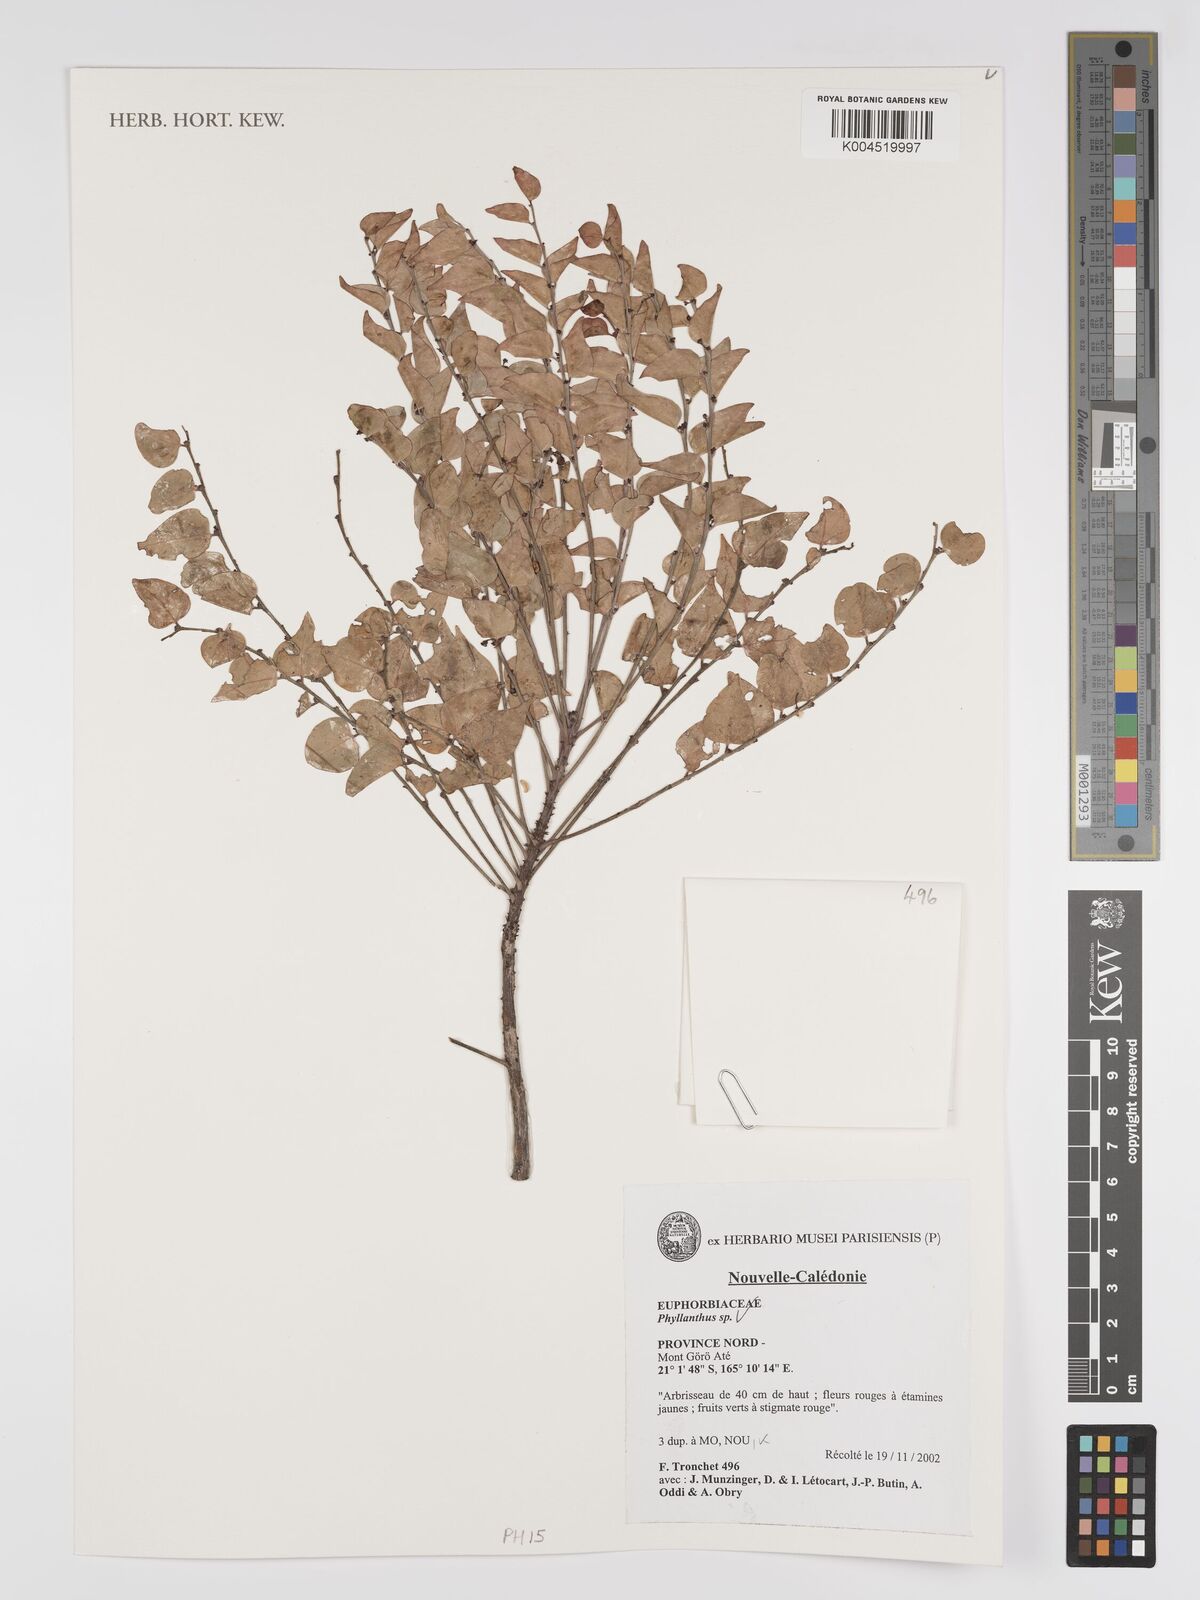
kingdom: Plantae
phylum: Tracheophyta
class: Magnoliopsida
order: Malpighiales
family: Phyllanthaceae
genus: Phyllanthus
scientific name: Phyllanthus
